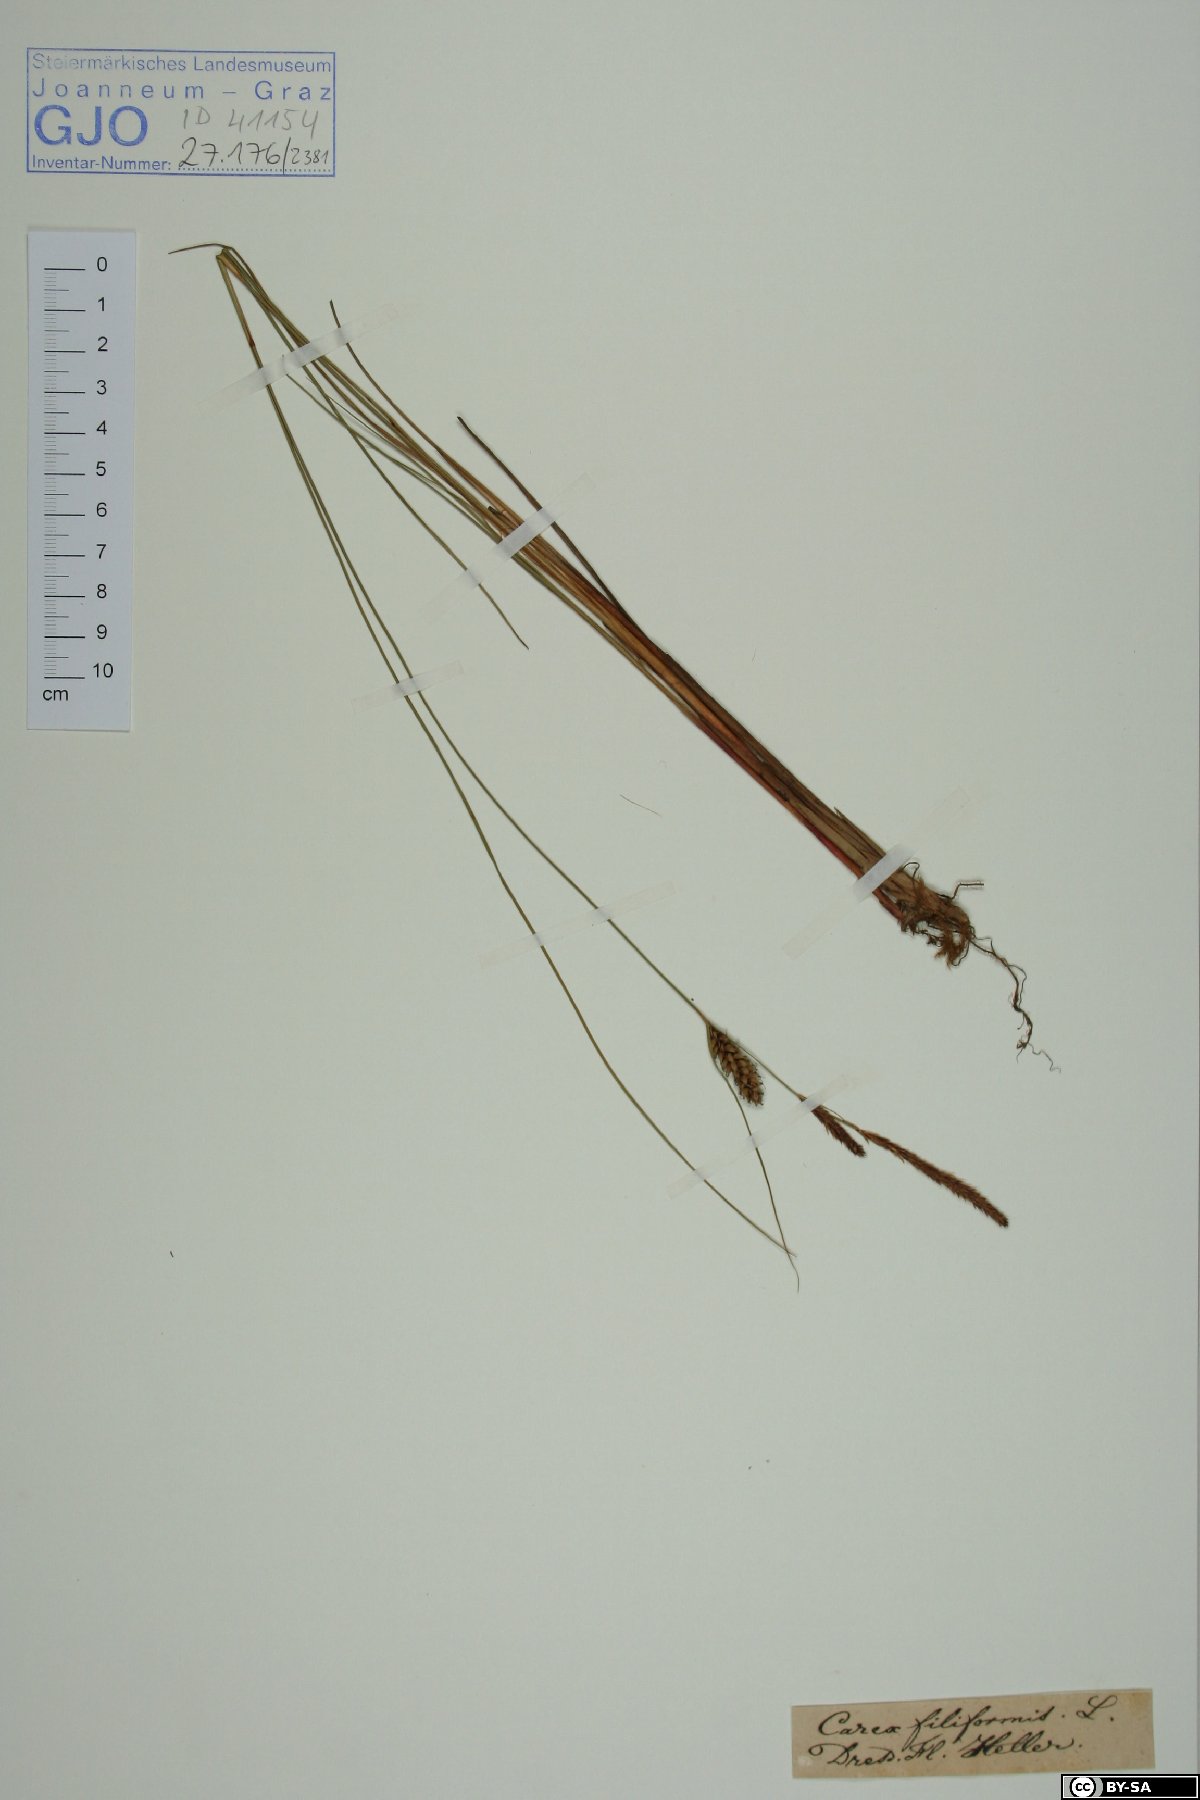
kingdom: Plantae
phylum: Tracheophyta
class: Liliopsida
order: Poales
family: Cyperaceae
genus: Carex
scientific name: Carex montana
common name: Soft-leaved sedge
